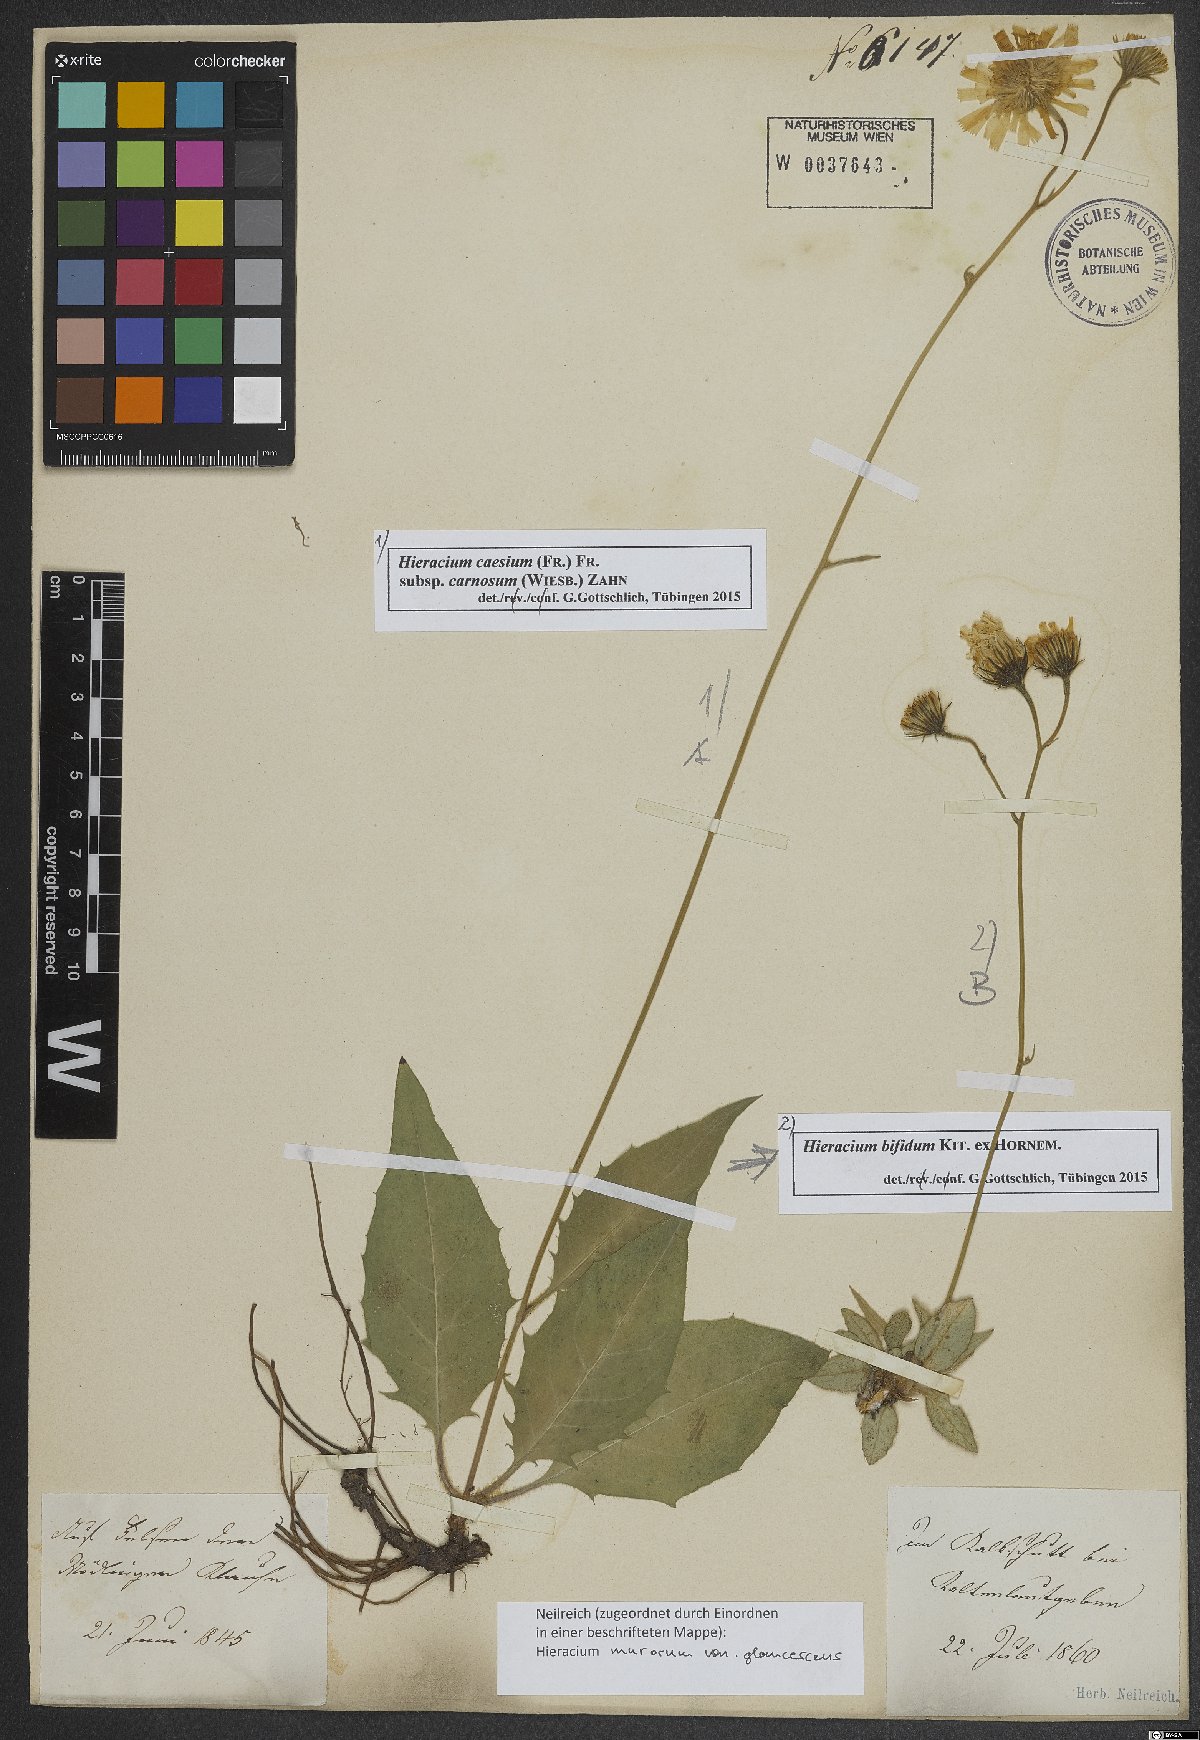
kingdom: Plantae
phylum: Tracheophyta
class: Magnoliopsida
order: Asterales
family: Asteraceae
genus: Hieracium
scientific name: Hieracium caesium
